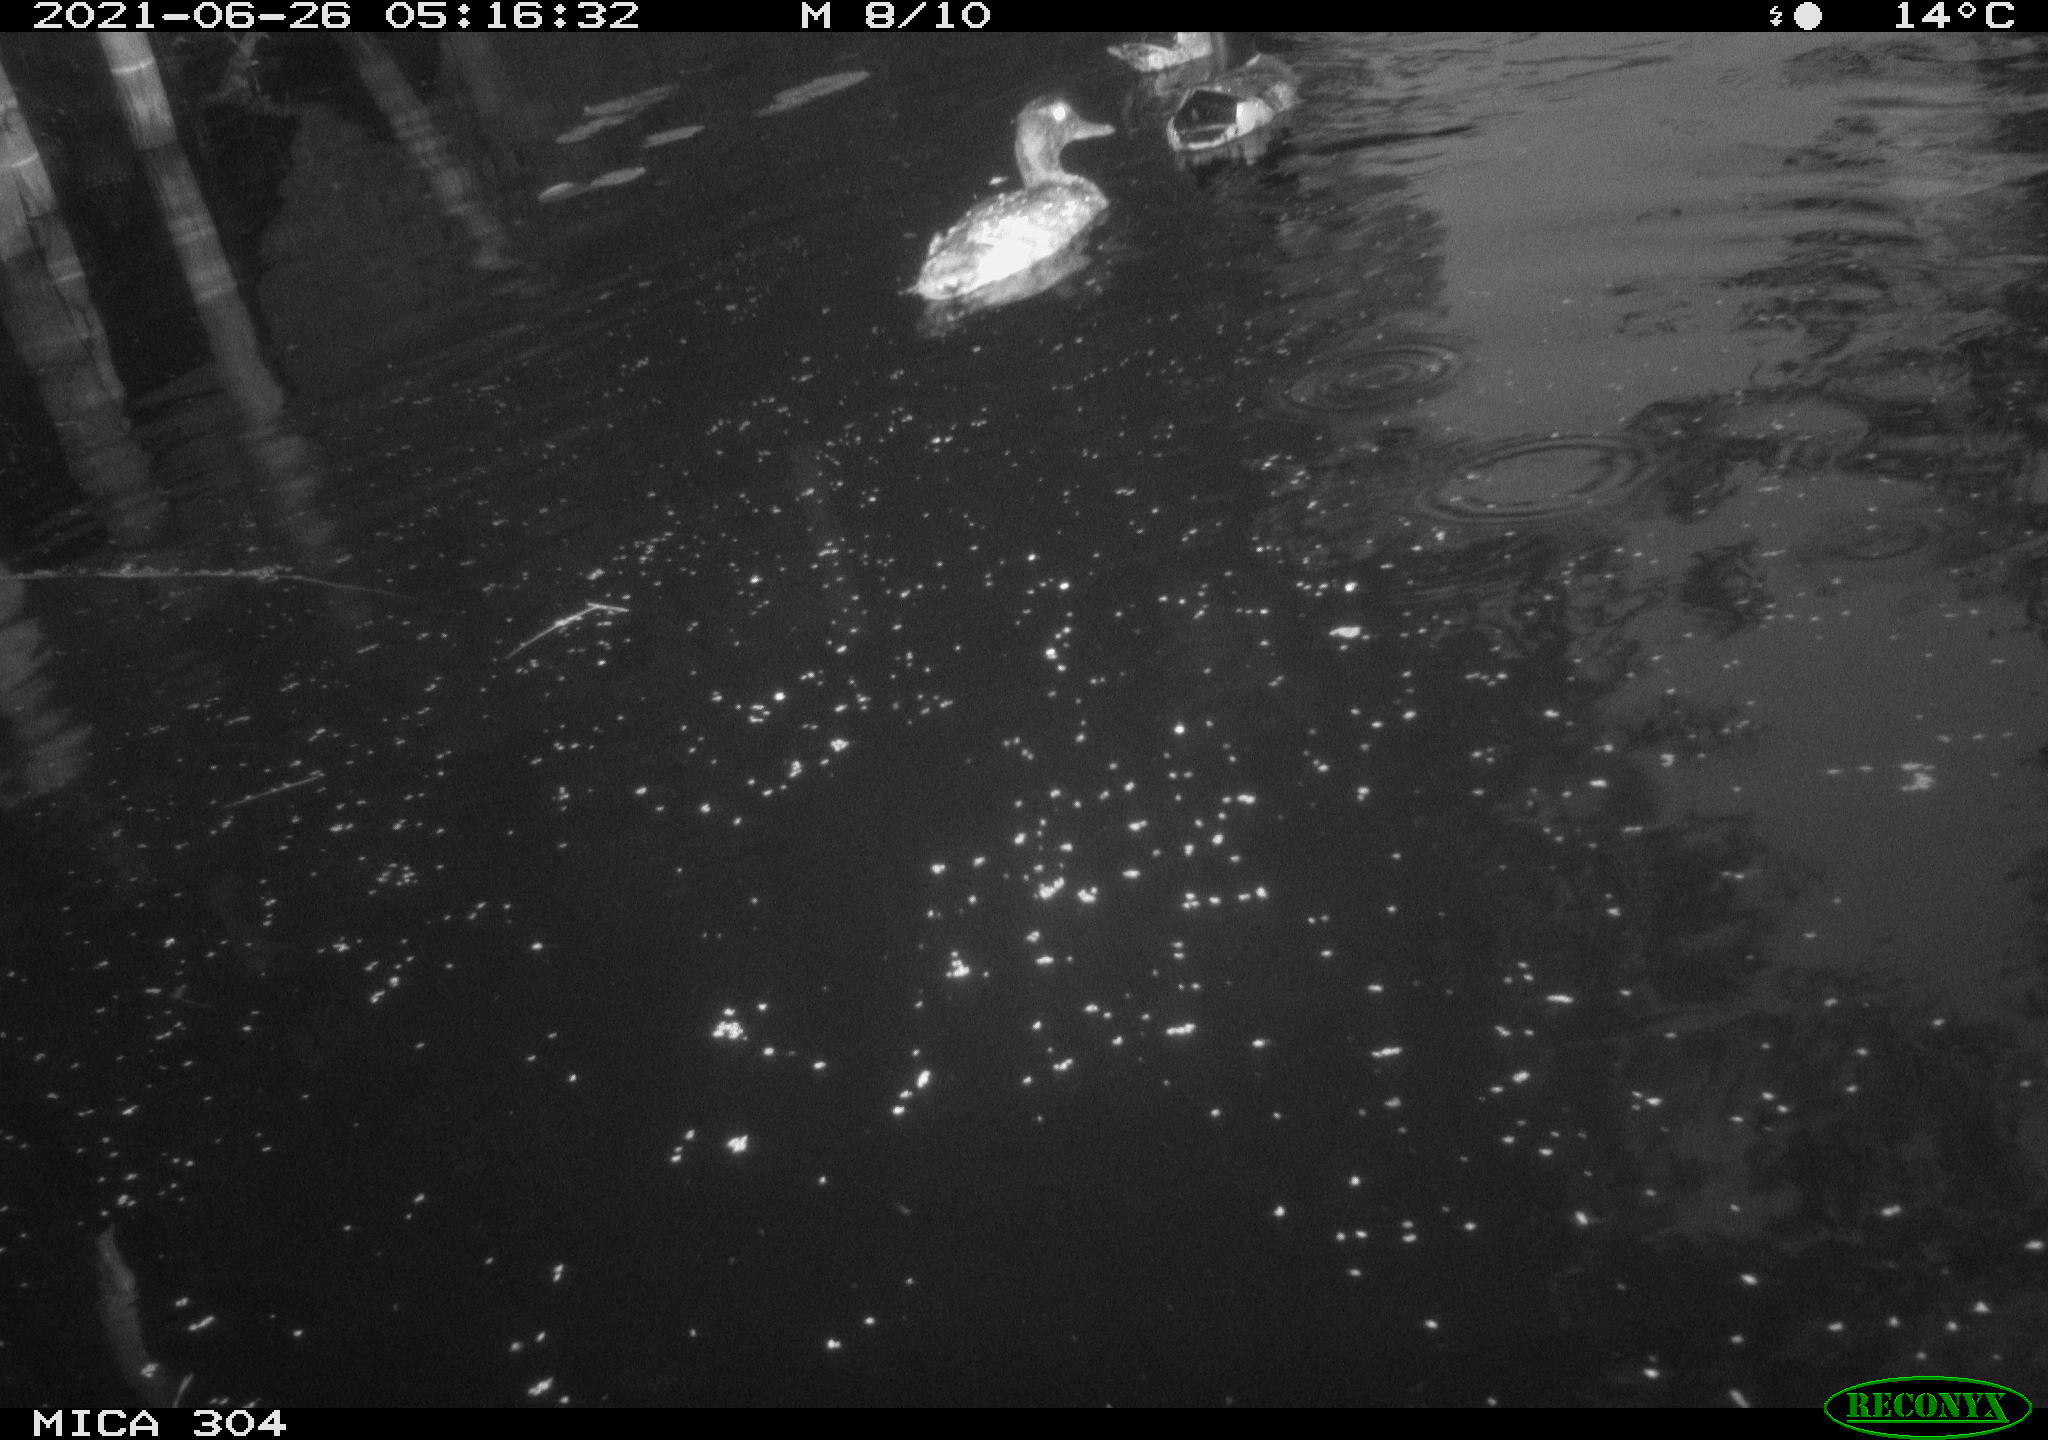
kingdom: Animalia
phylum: Chordata
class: Aves
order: Anseriformes
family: Anatidae
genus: Anas
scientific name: Anas platyrhynchos
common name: Mallard
